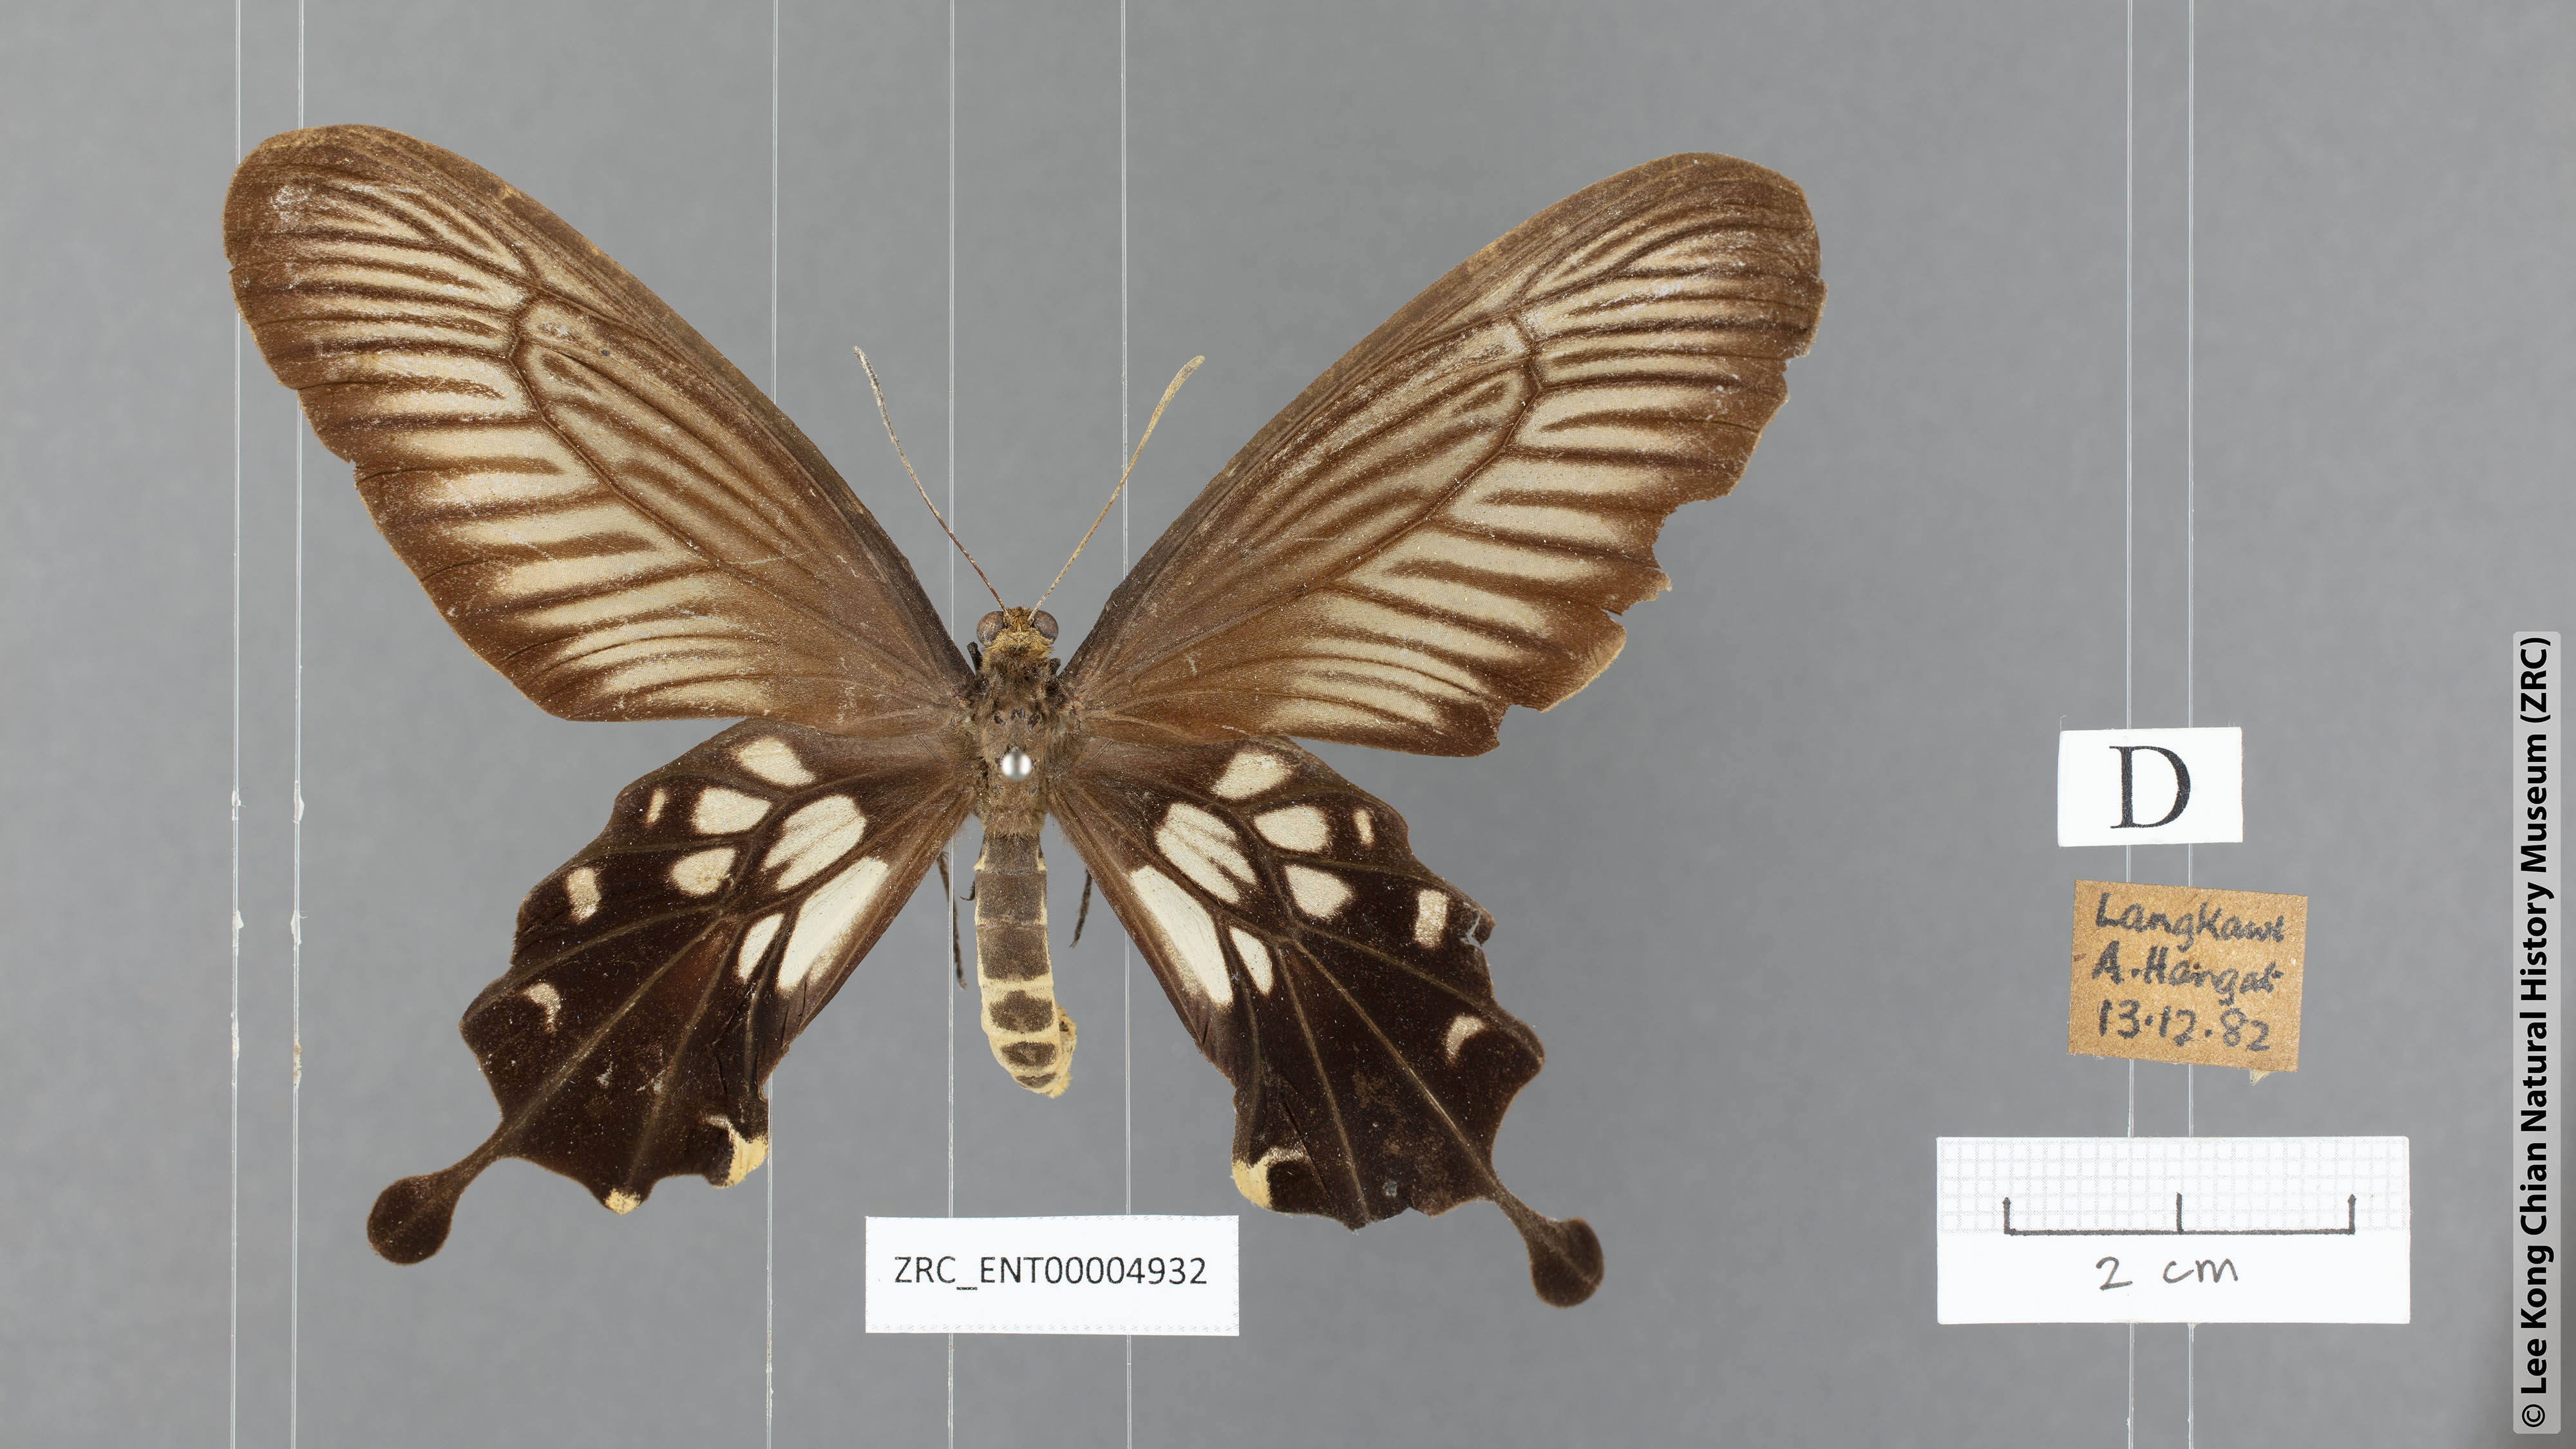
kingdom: Animalia
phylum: Arthropoda
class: Insecta
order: Lepidoptera
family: Papilionidae
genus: Losaria
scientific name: Losaria coon
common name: Common clubtail
